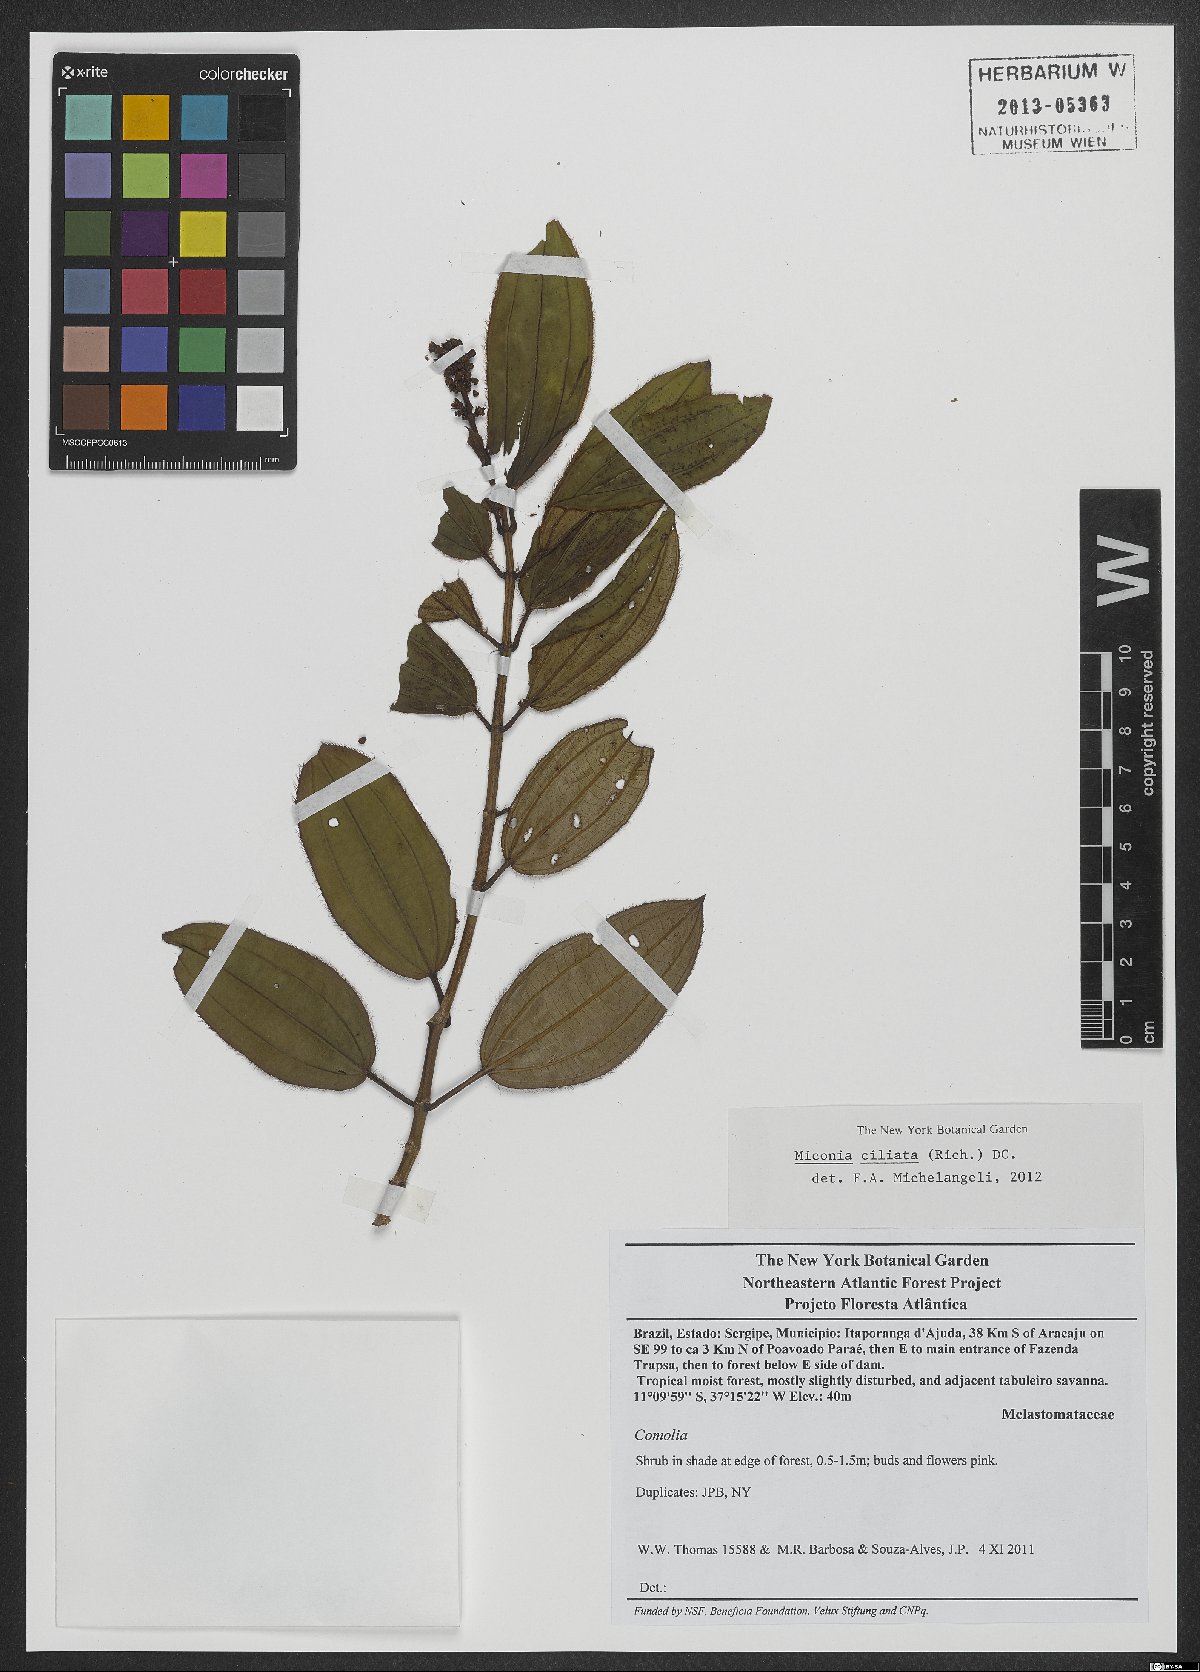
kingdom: Plantae
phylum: Tracheophyta
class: Magnoliopsida
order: Myrtales
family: Melastomataceae
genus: Miconia
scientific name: Miconia ciliata
